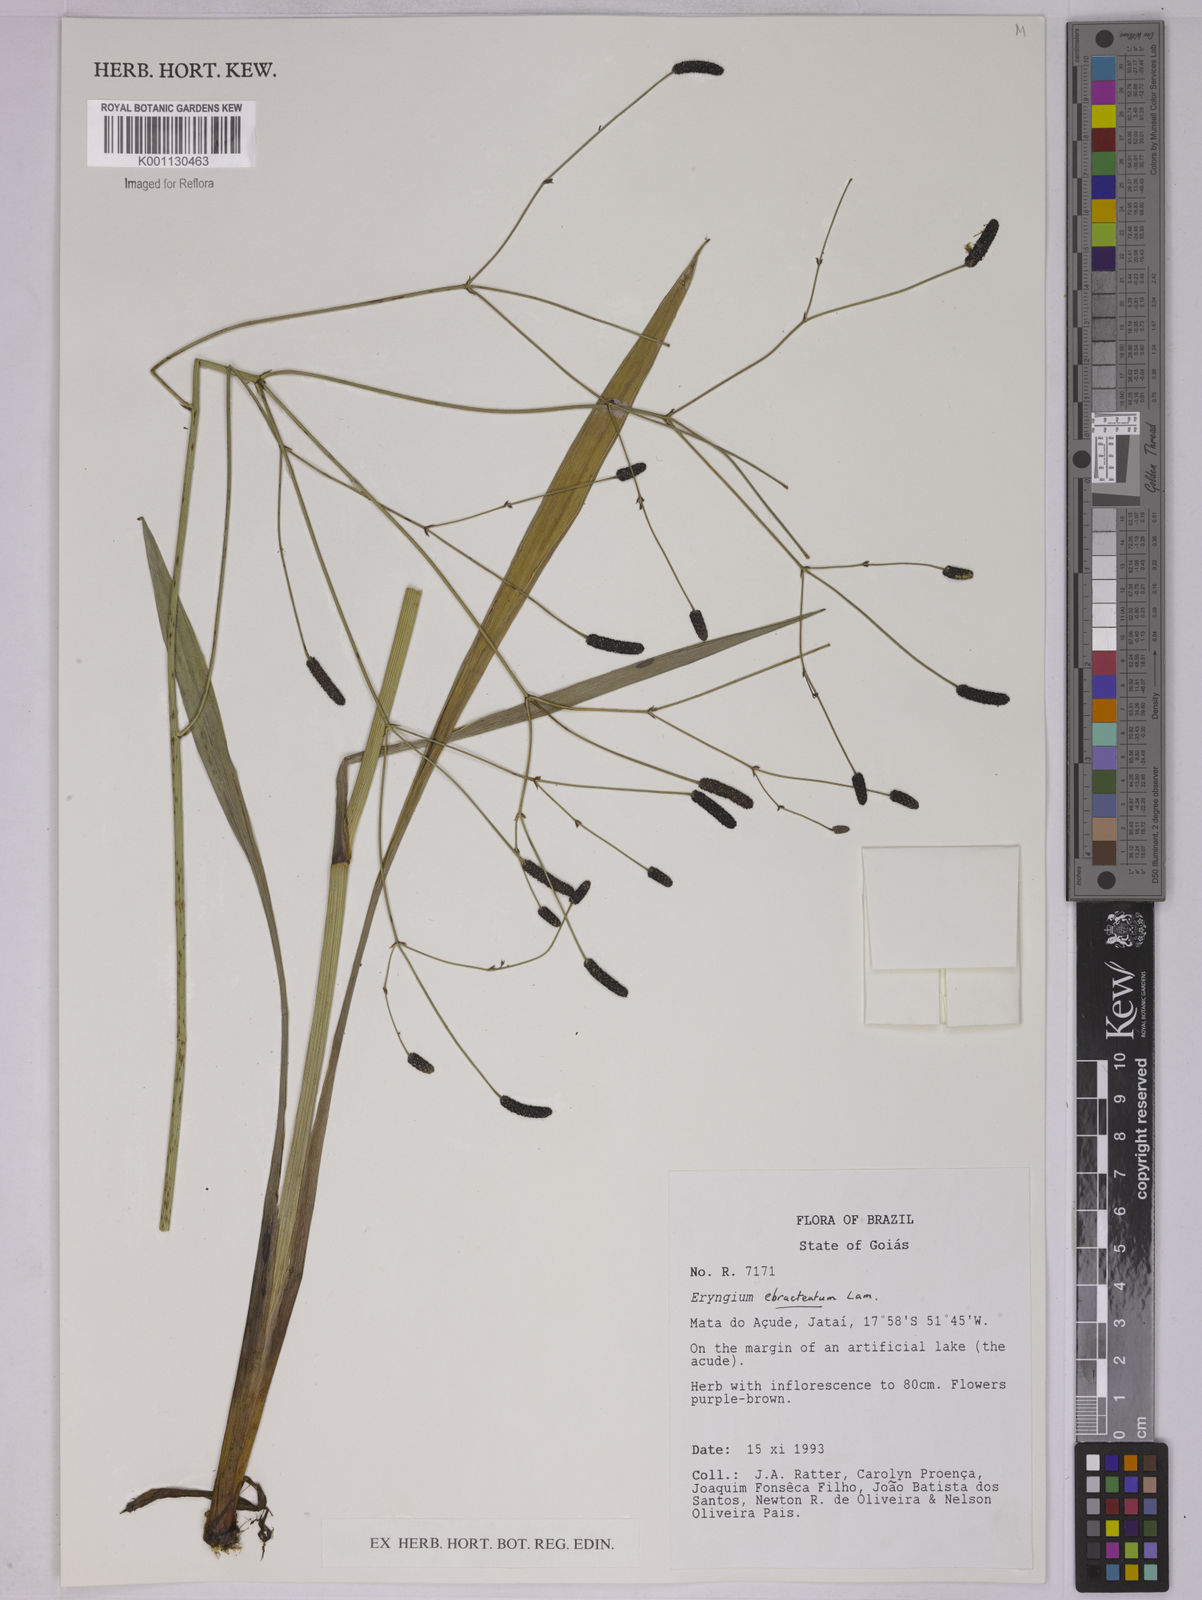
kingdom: Plantae
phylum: Tracheophyta
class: Magnoliopsida
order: Apiales
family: Apiaceae
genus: Eryngium
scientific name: Eryngium ebracteatum
